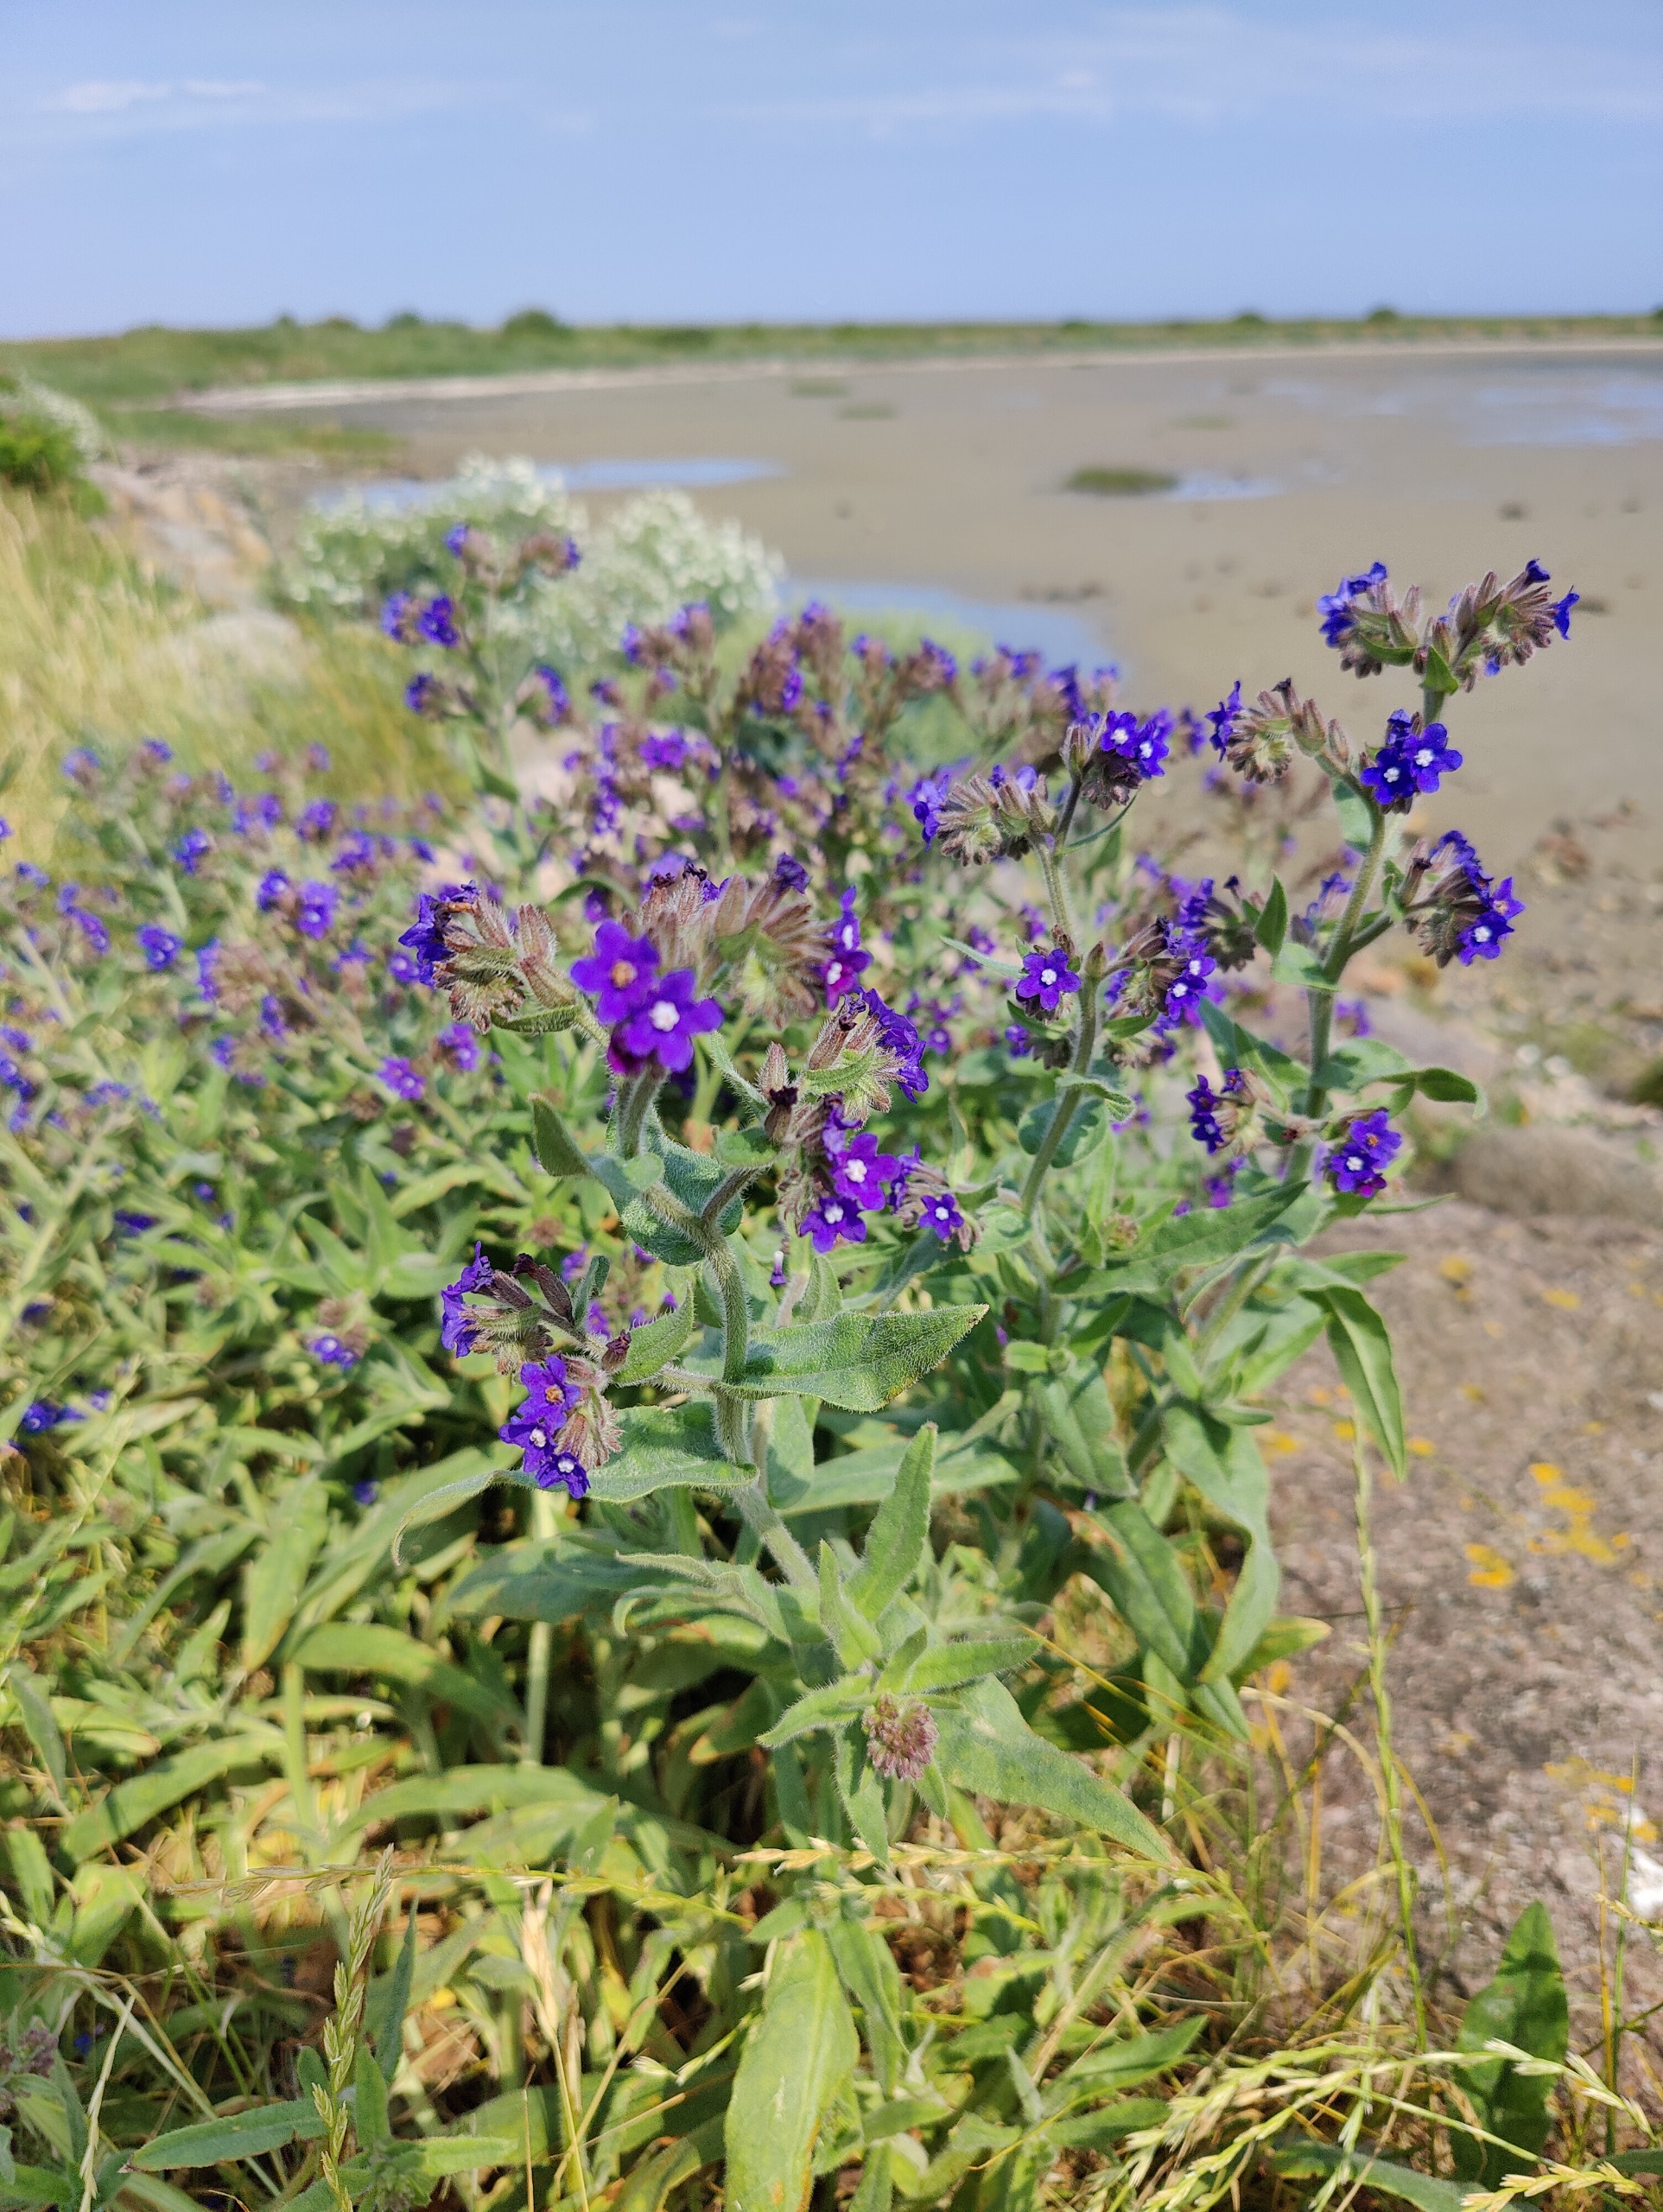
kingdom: Plantae
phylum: Tracheophyta
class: Magnoliopsida
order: Boraginales
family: Boraginaceae
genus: Anchusa
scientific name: Anchusa officinalis
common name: Læge-oksetunge
